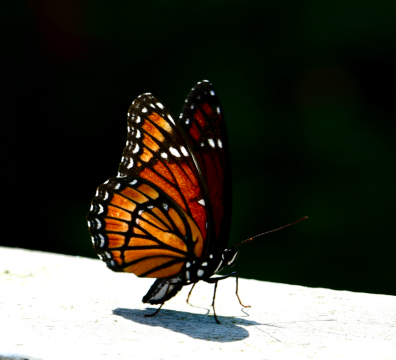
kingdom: Animalia
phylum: Arthropoda
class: Insecta
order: Lepidoptera
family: Nymphalidae
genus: Limenitis
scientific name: Limenitis archippus
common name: Viceroy
